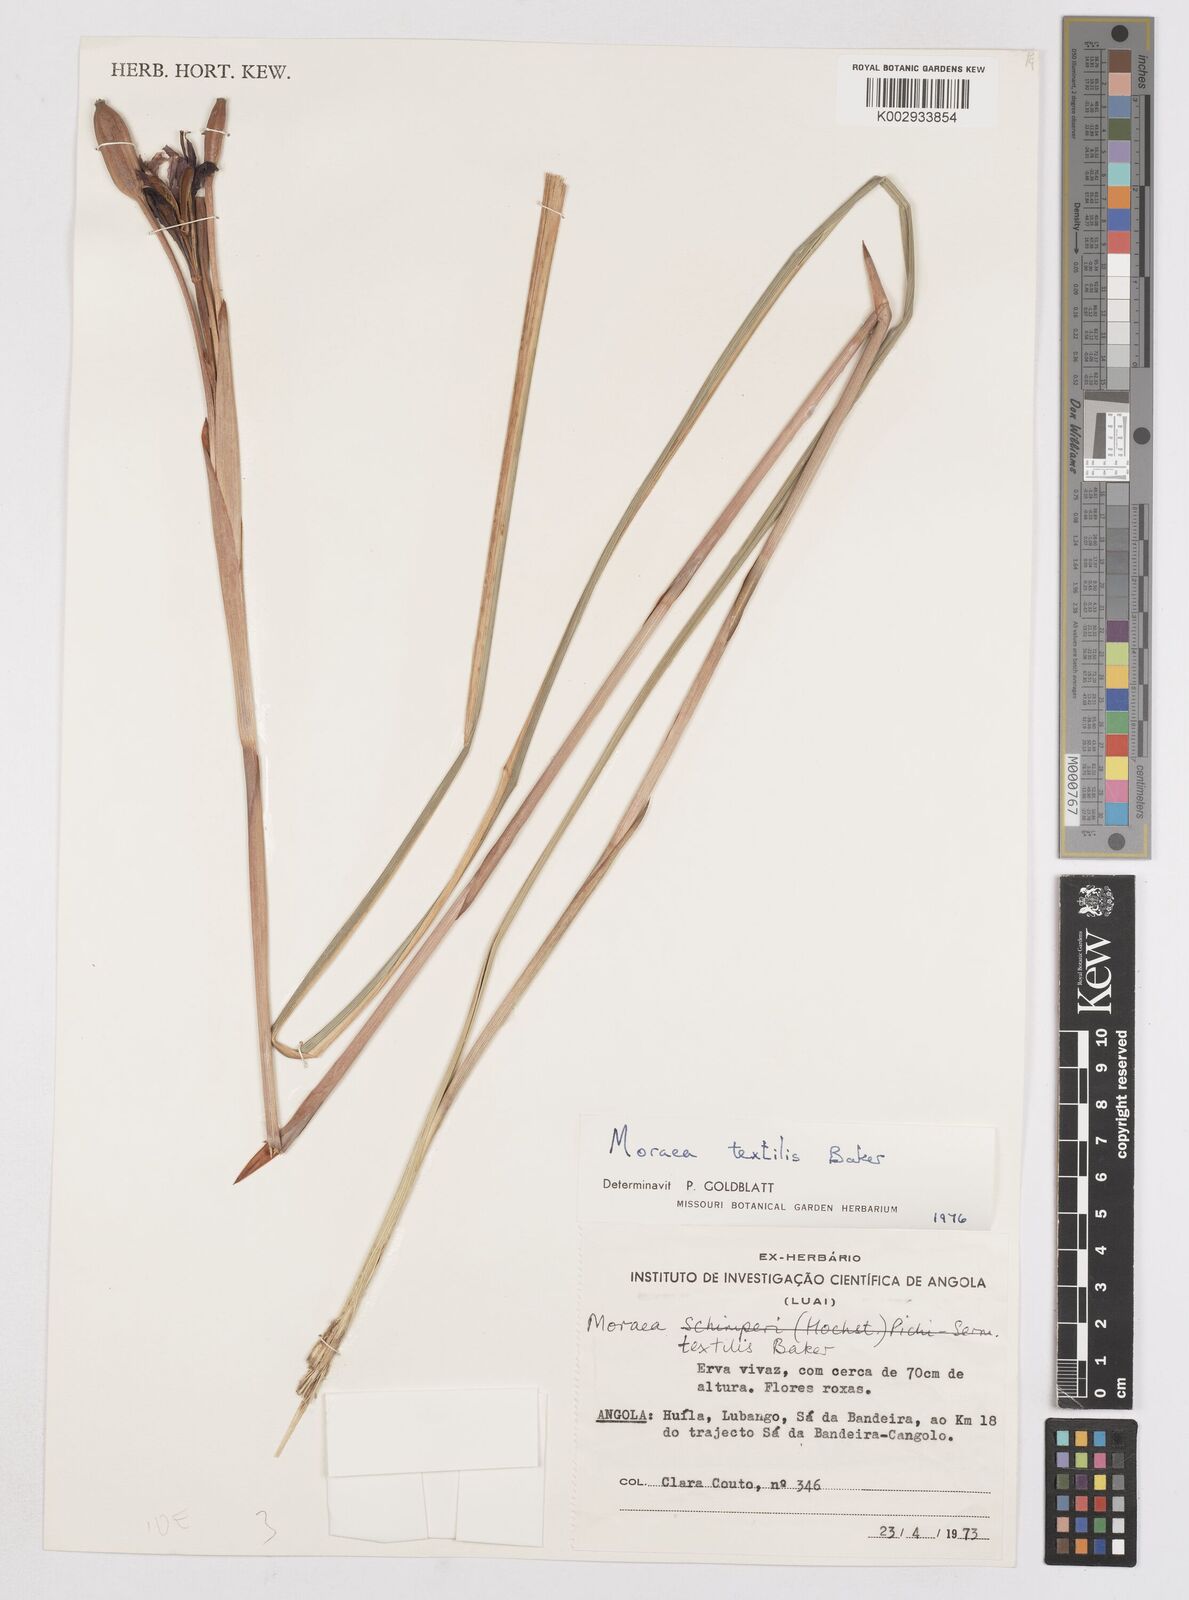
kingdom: Plantae
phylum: Tracheophyta
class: Liliopsida
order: Asparagales
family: Iridaceae
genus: Moraea
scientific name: Moraea textilis
